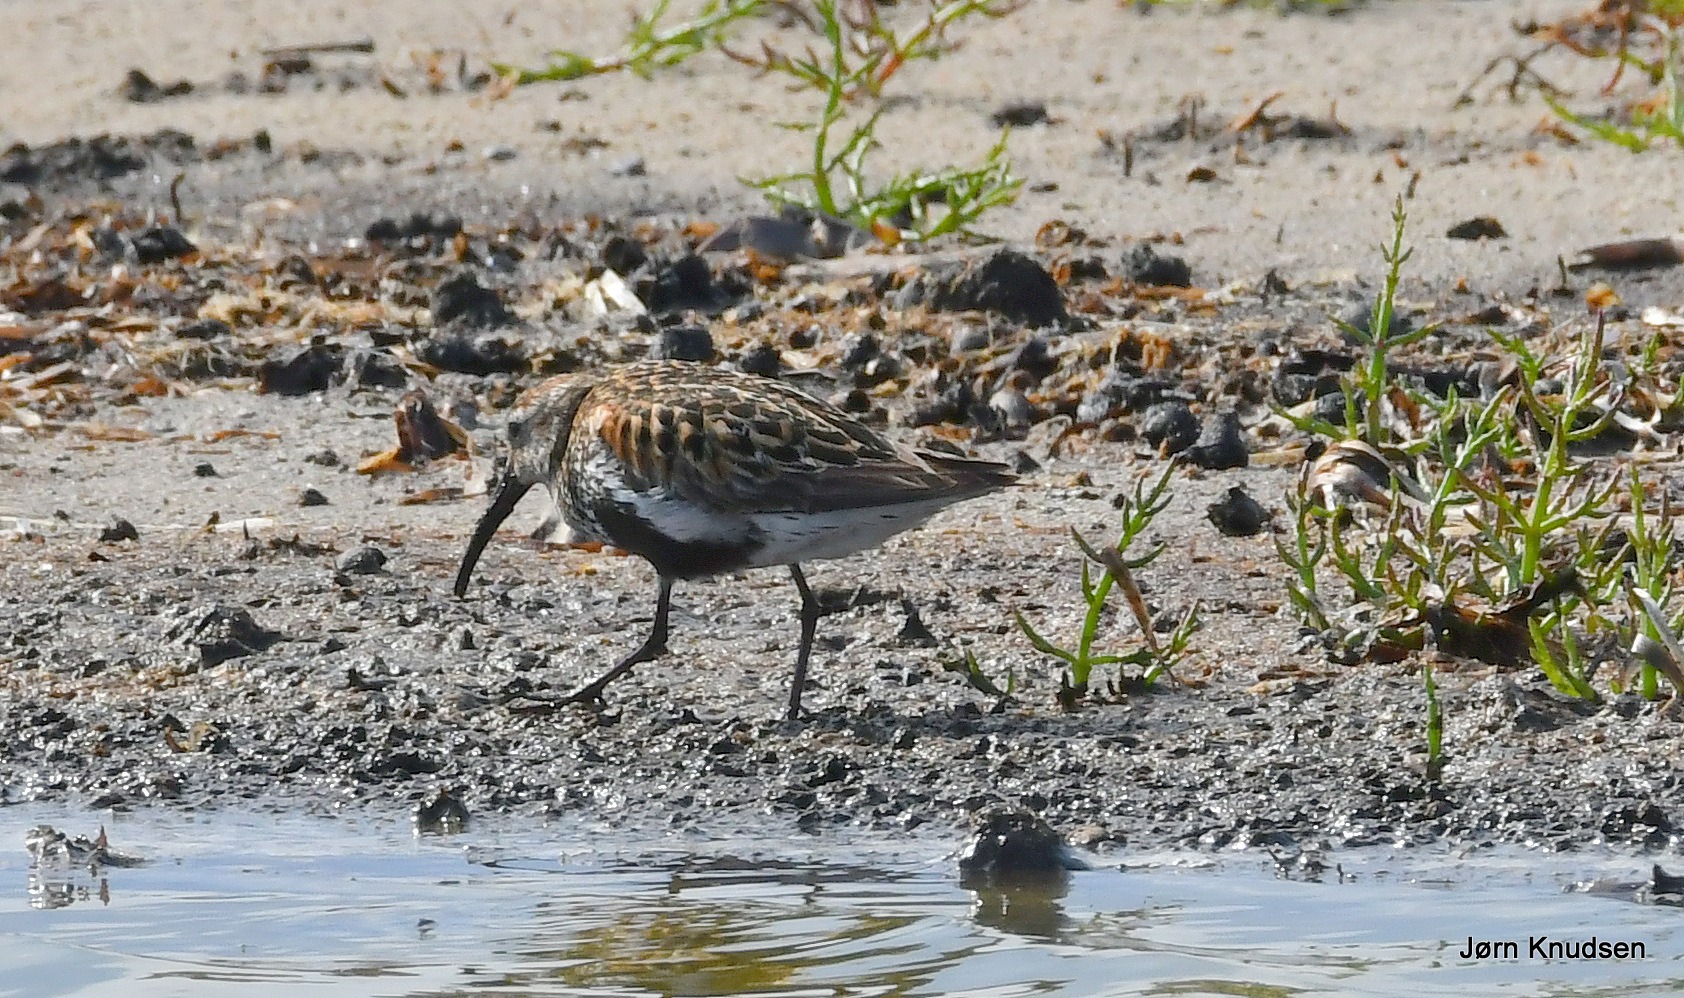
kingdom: Animalia
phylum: Chordata
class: Aves
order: Charadriiformes
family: Scolopacidae
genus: Calidris
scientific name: Calidris alpina
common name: Almindelig ryle
